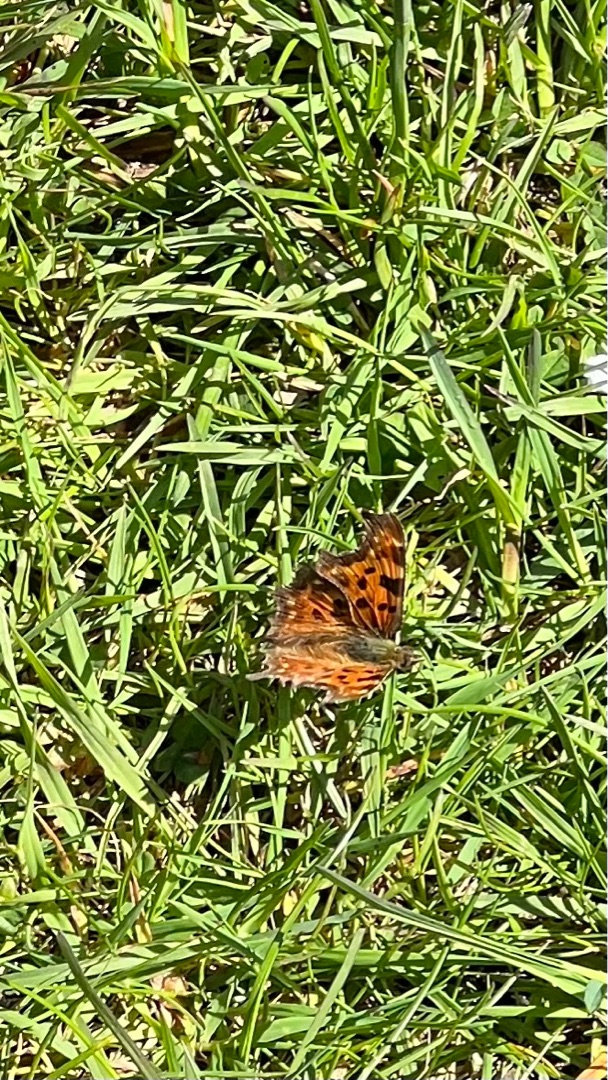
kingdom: Animalia
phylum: Arthropoda
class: Insecta
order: Lepidoptera
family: Nymphalidae
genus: Polygonia
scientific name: Polygonia c-album
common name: Det hvide C
